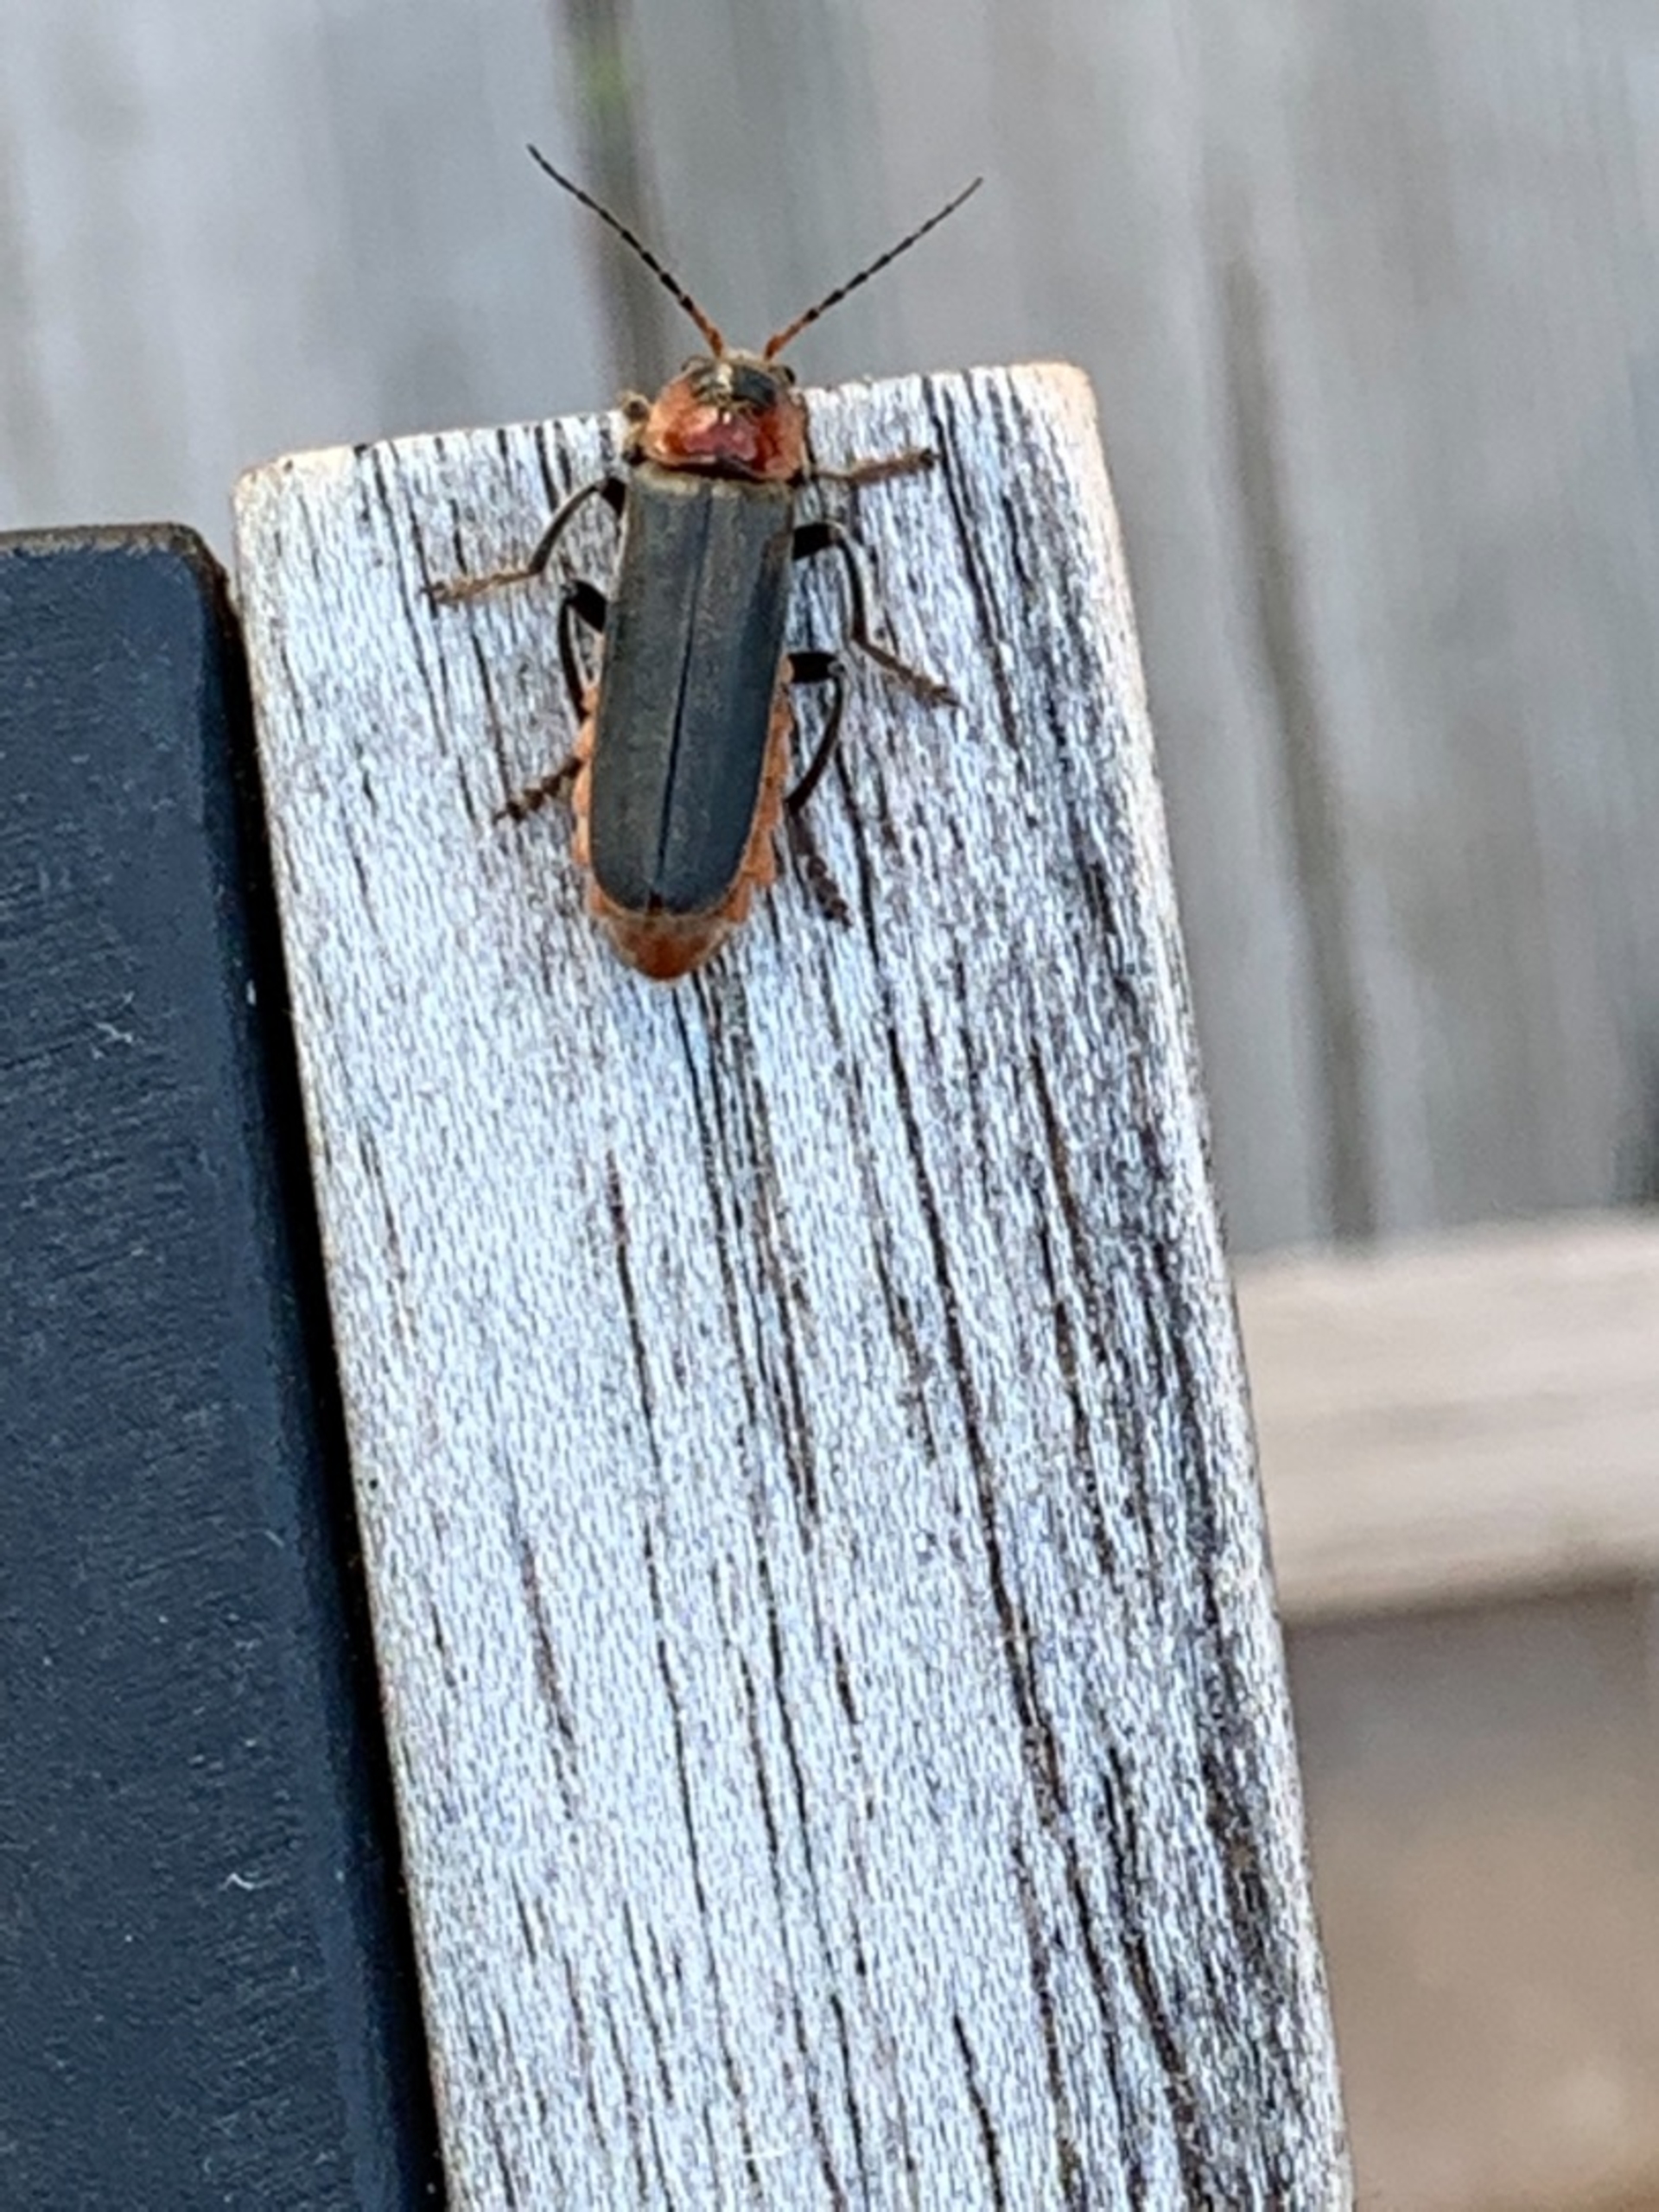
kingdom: Animalia
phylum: Arthropoda
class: Insecta
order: Coleoptera
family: Cantharidae
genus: Cantharis
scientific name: Cantharis fusca
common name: Stor blødvinge
